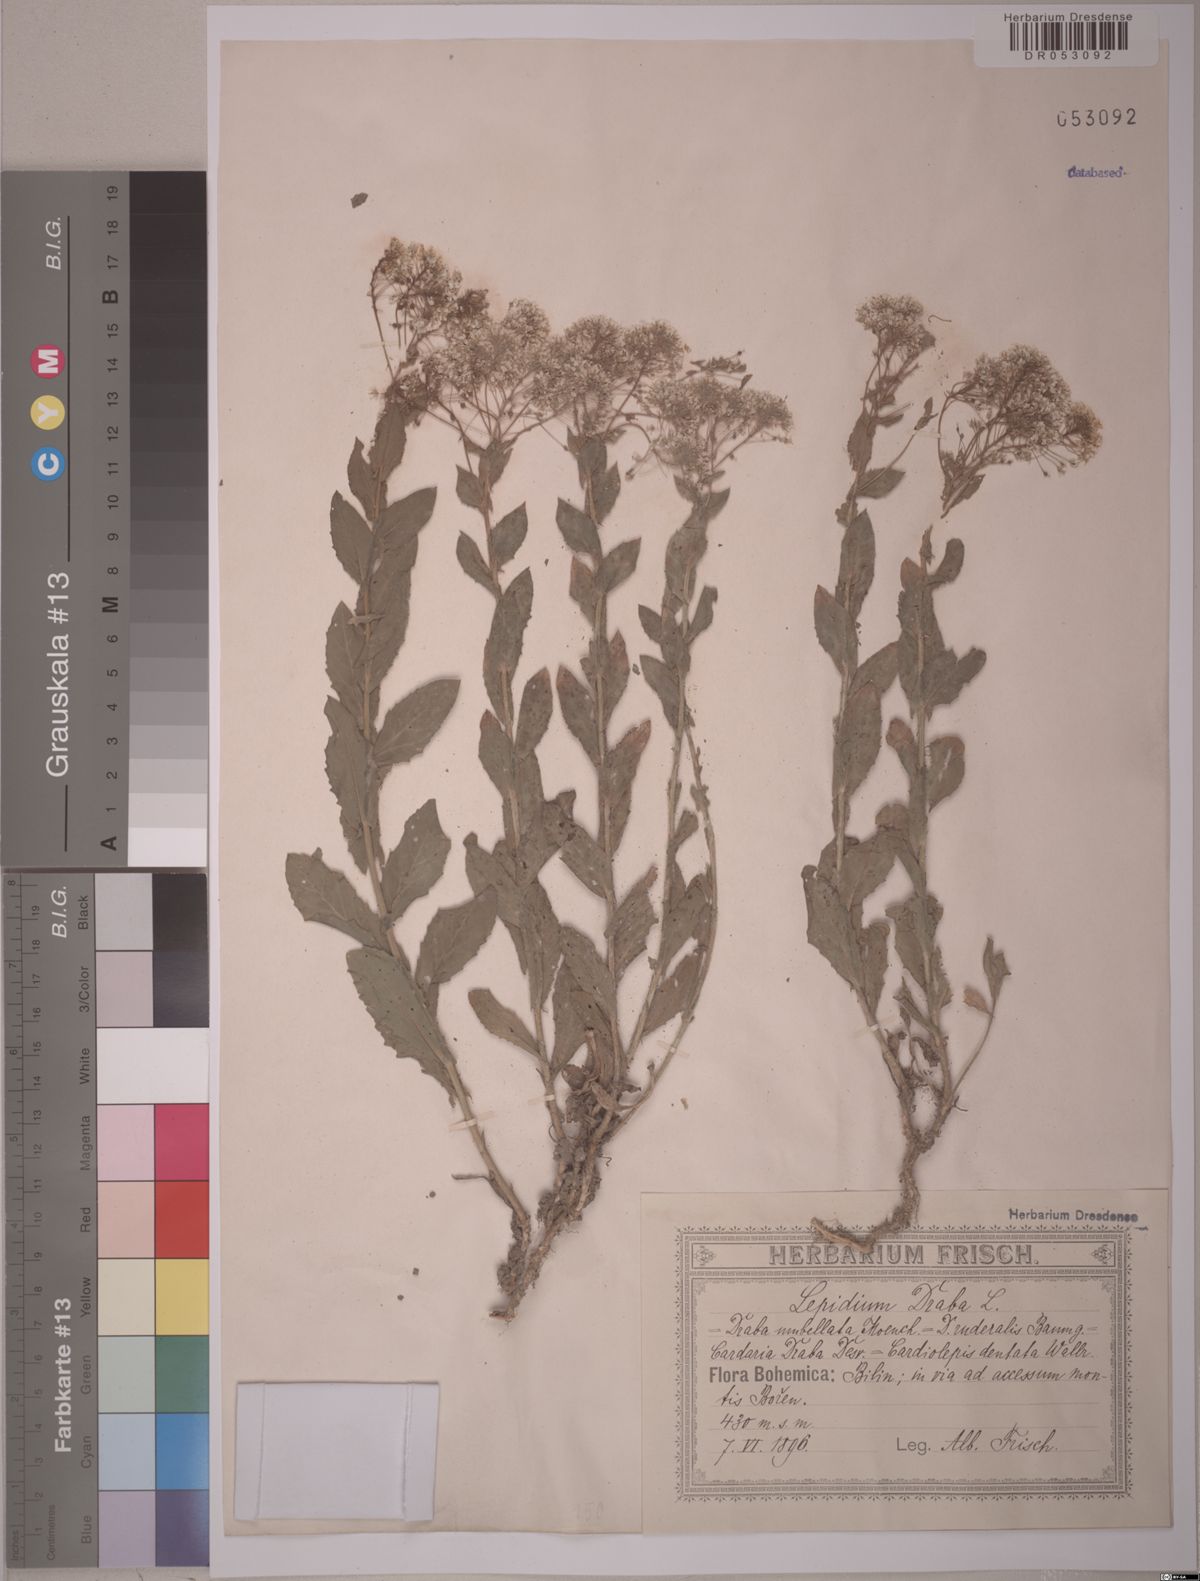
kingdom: Plantae
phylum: Tracheophyta
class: Magnoliopsida
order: Brassicales
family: Brassicaceae
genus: Lepidium
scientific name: Lepidium draba
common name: Hoary cress
